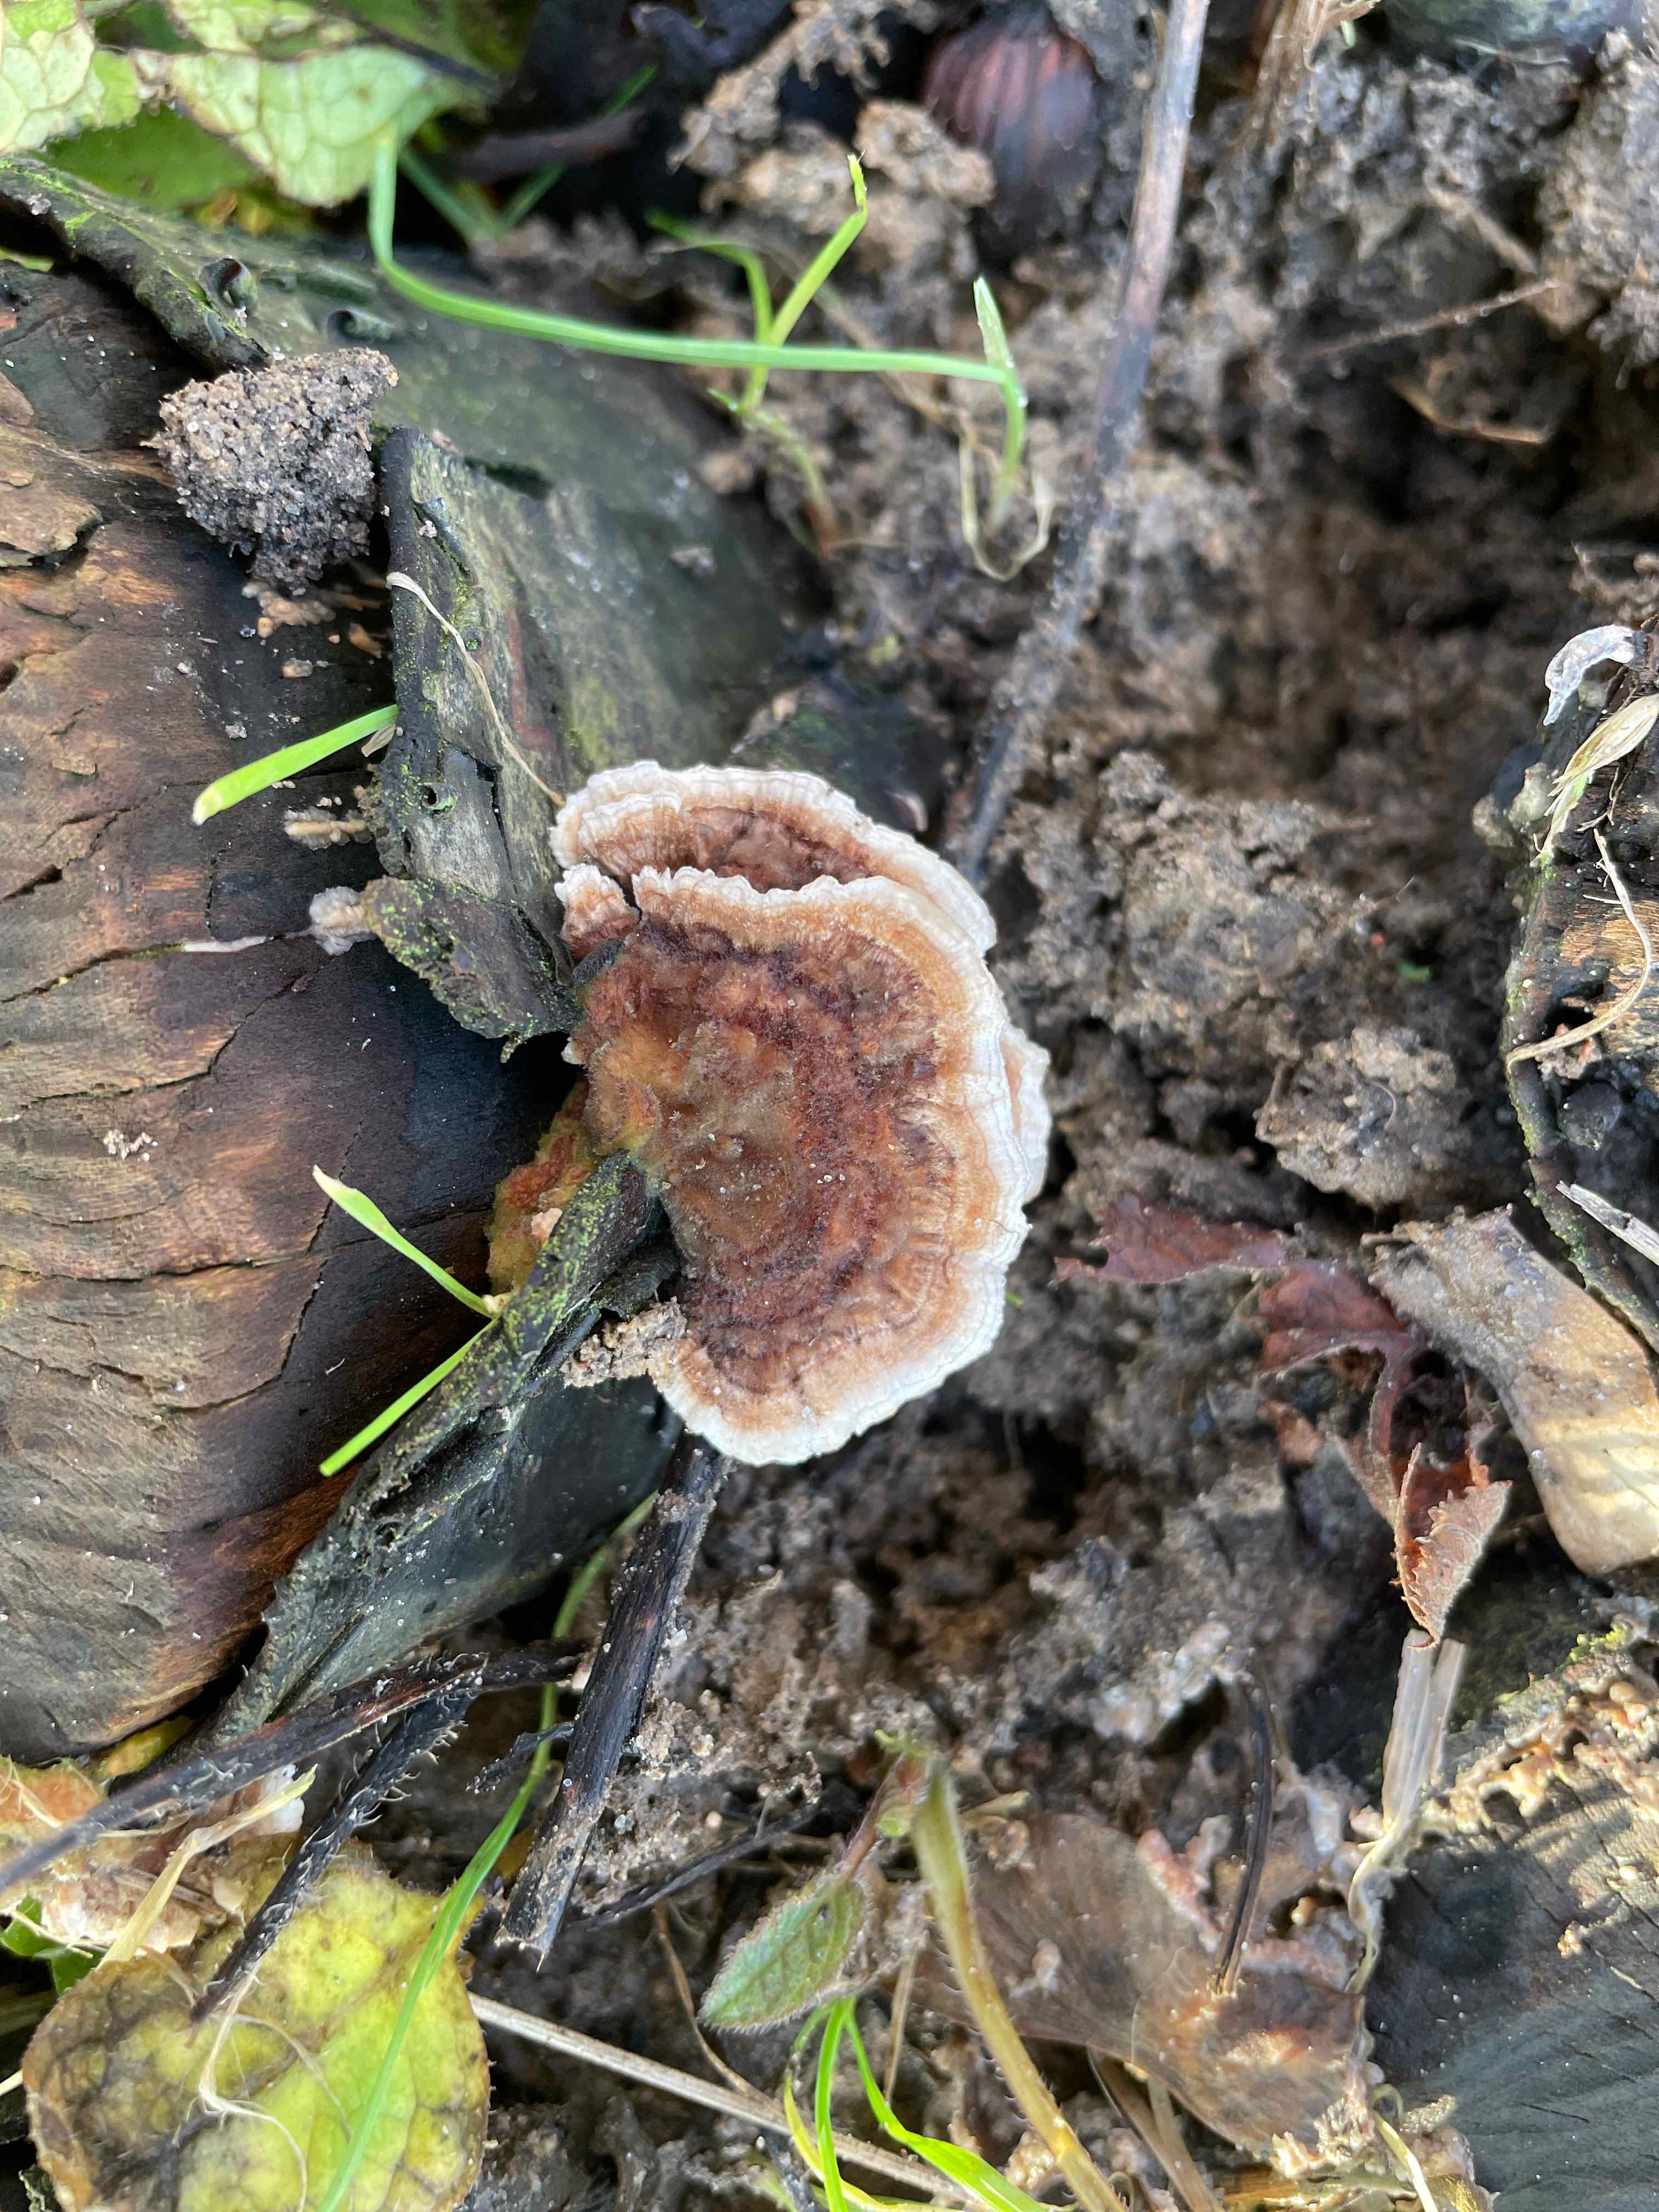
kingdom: Fungi
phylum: Basidiomycota
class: Agaricomycetes
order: Polyporales
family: Polyporaceae
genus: Trametes
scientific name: Trametes versicolor
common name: broget læderporesvamp
